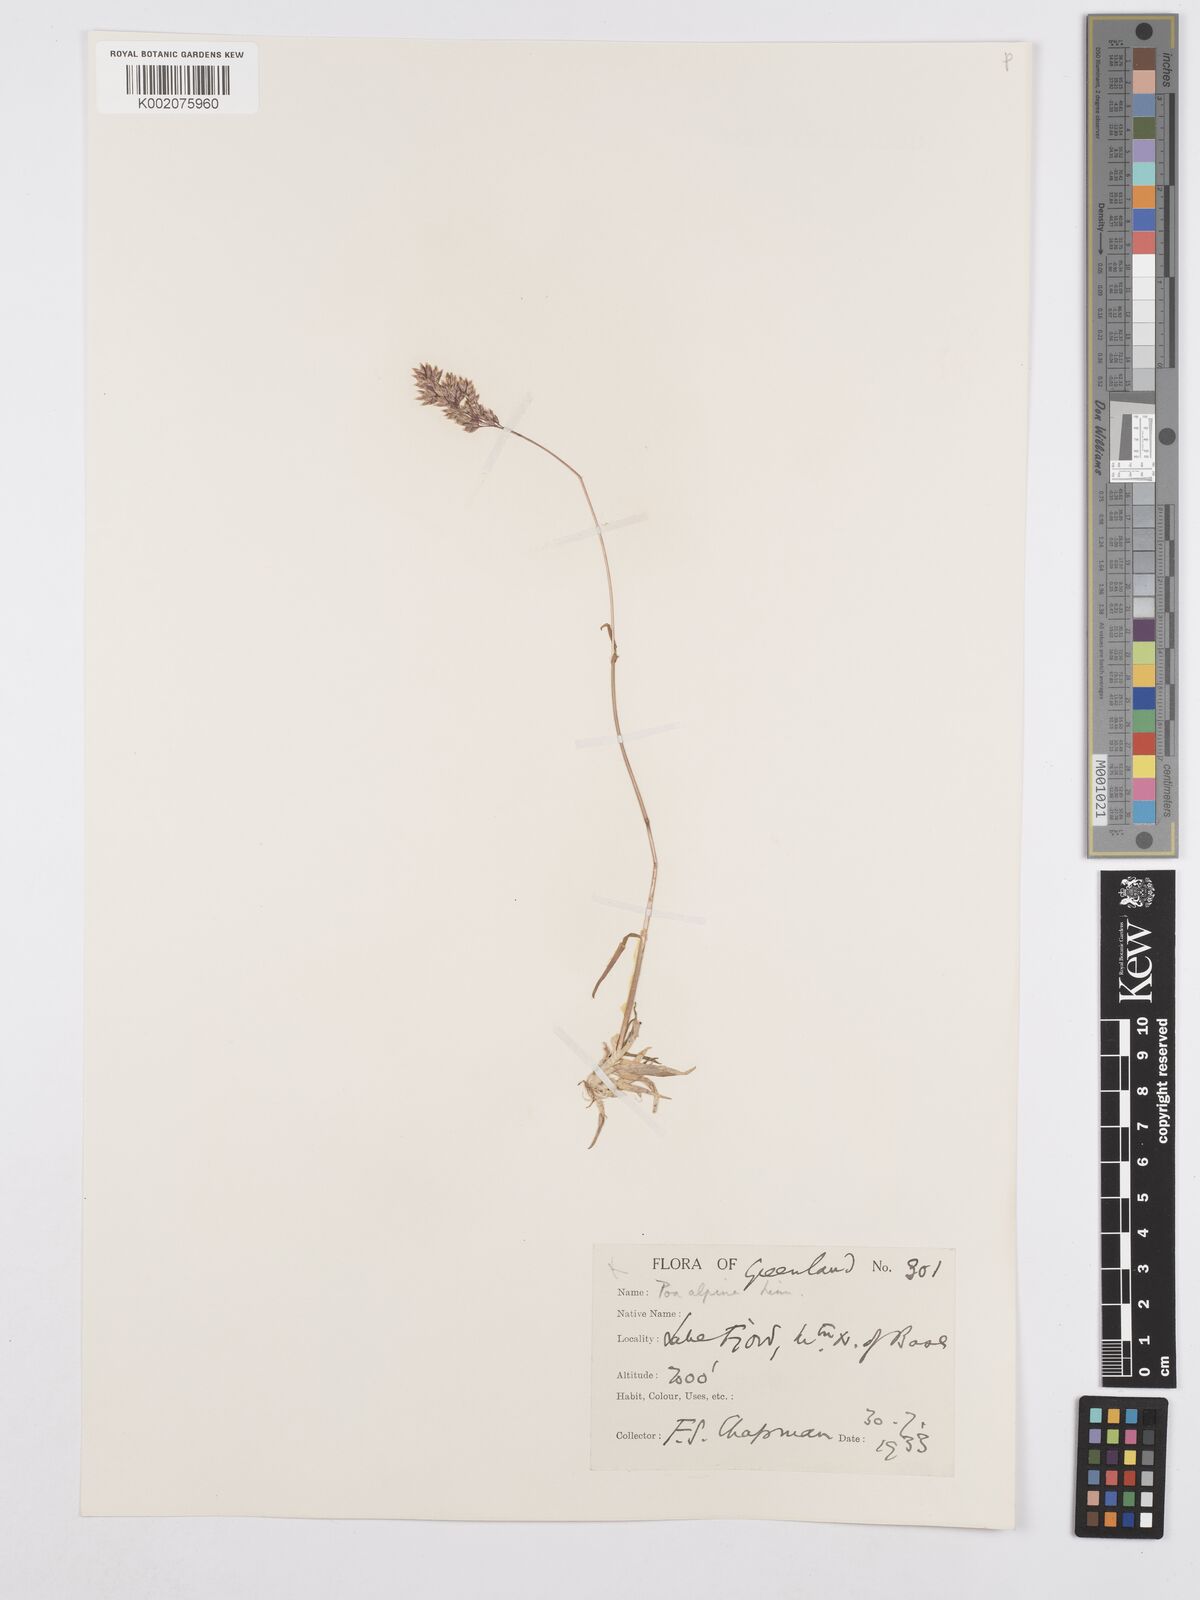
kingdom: Plantae
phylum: Tracheophyta
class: Liliopsida
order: Poales
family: Poaceae
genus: Poa
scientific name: Poa alpina
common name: Alpine bluegrass
